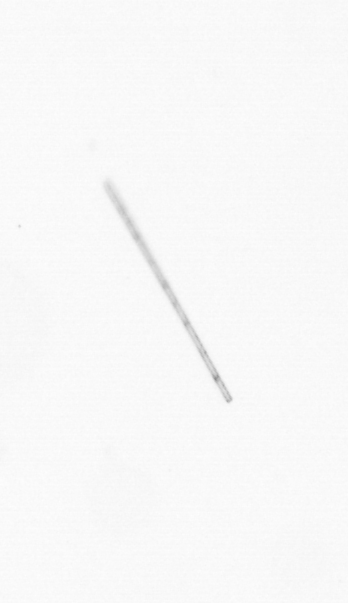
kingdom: Chromista
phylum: Ochrophyta
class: Bacillariophyceae
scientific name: Bacillariophyceae
